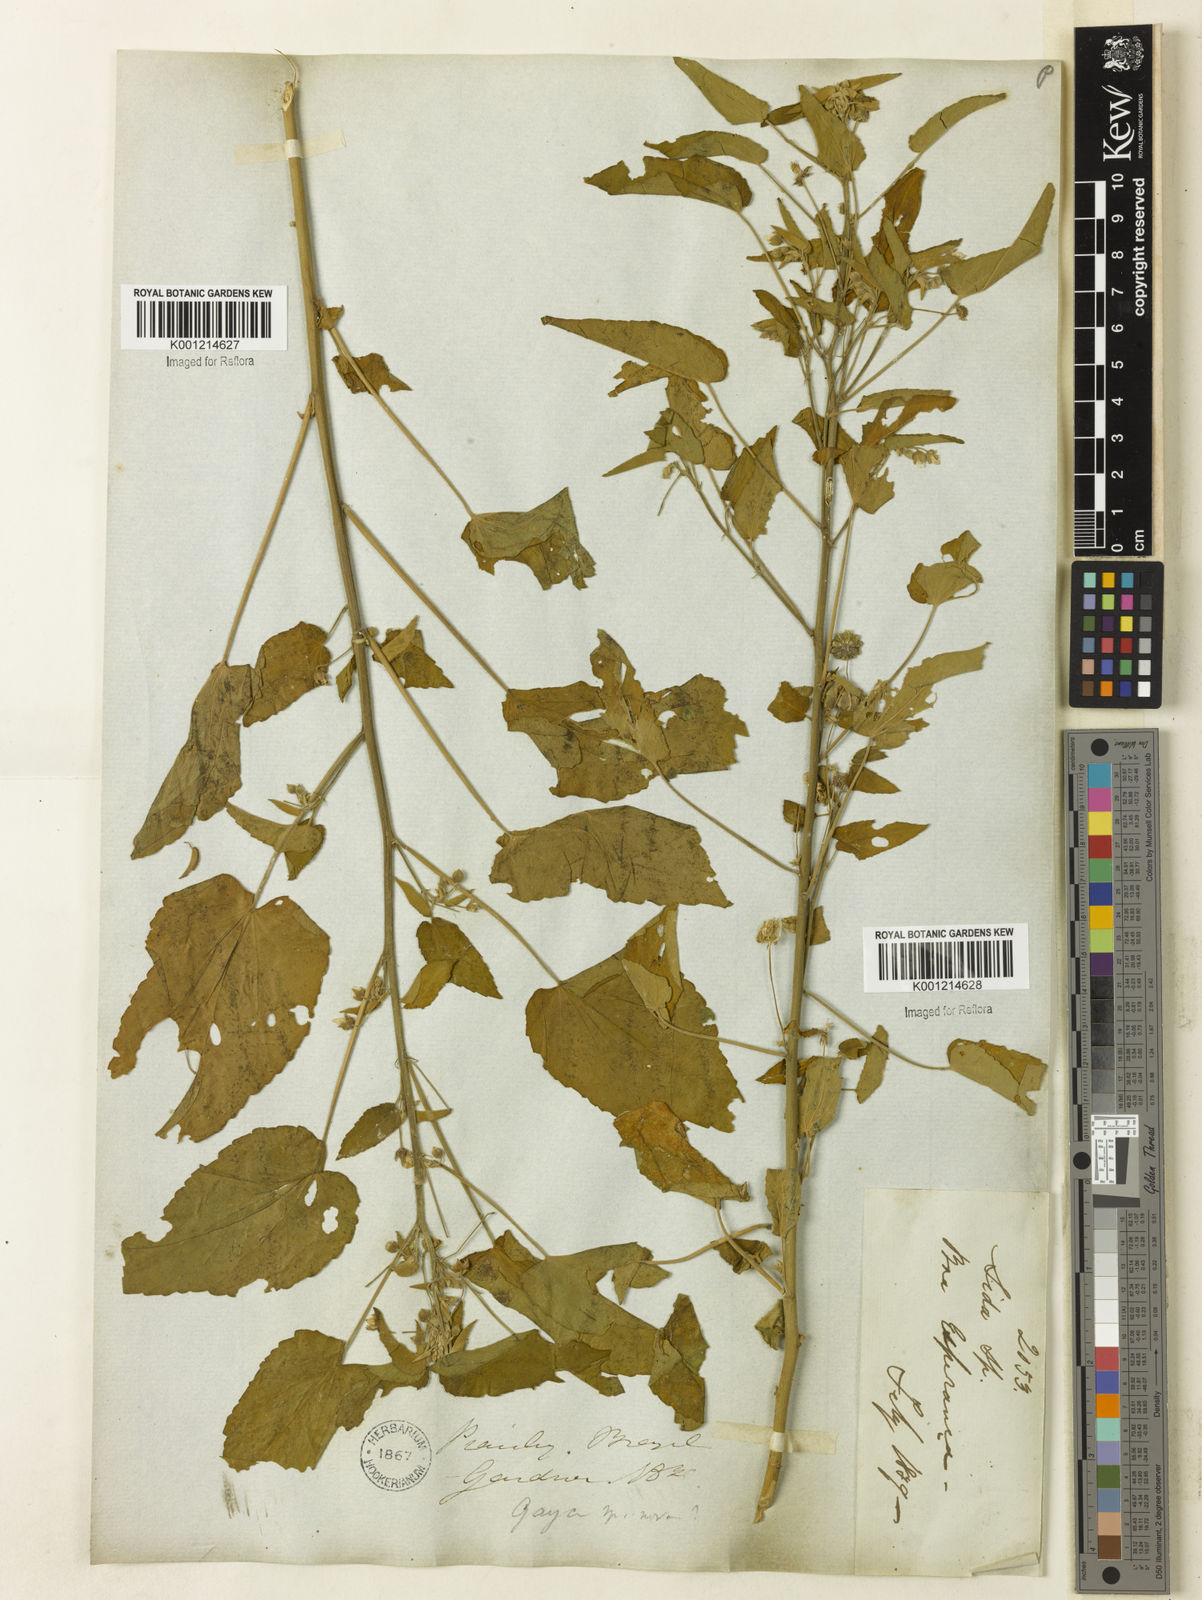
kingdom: Plantae
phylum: Tracheophyta
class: Magnoliopsida
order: Malvales
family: Malvaceae
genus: Gaya
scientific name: Gaya
